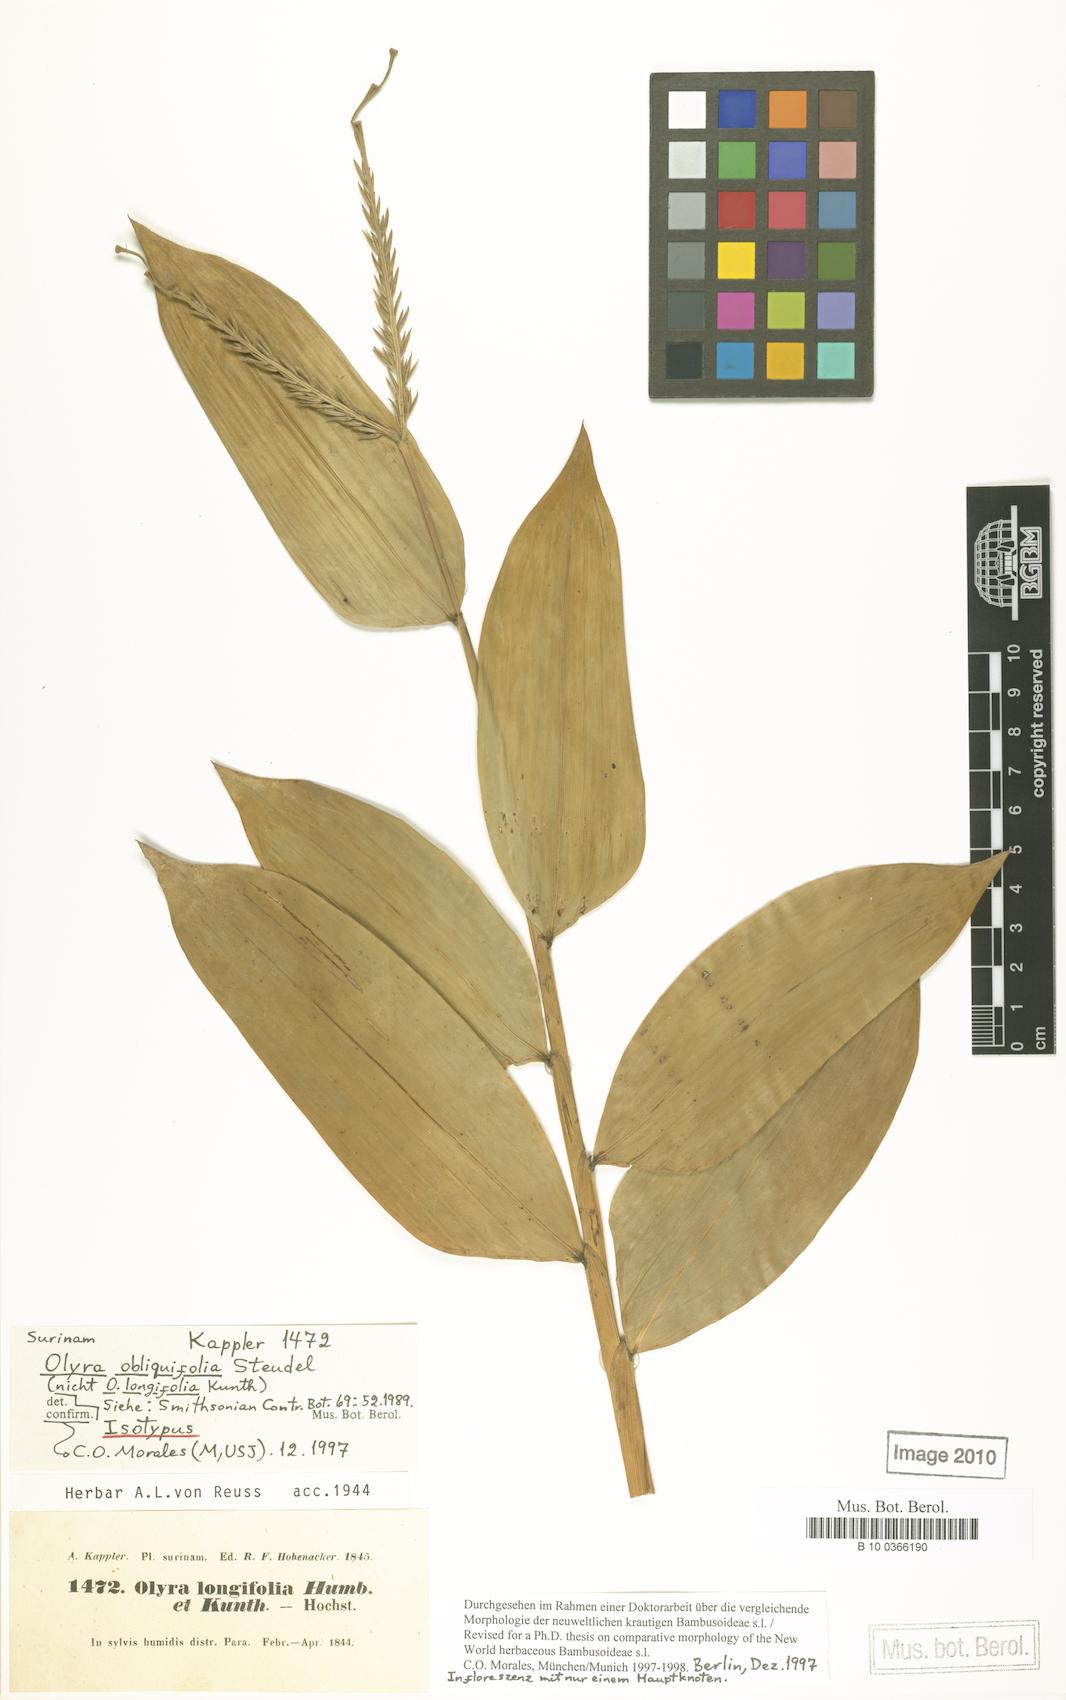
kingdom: Plantae
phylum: Tracheophyta
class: Liliopsida
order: Poales
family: Poaceae
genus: Olyra
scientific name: Olyra obliquifolia
